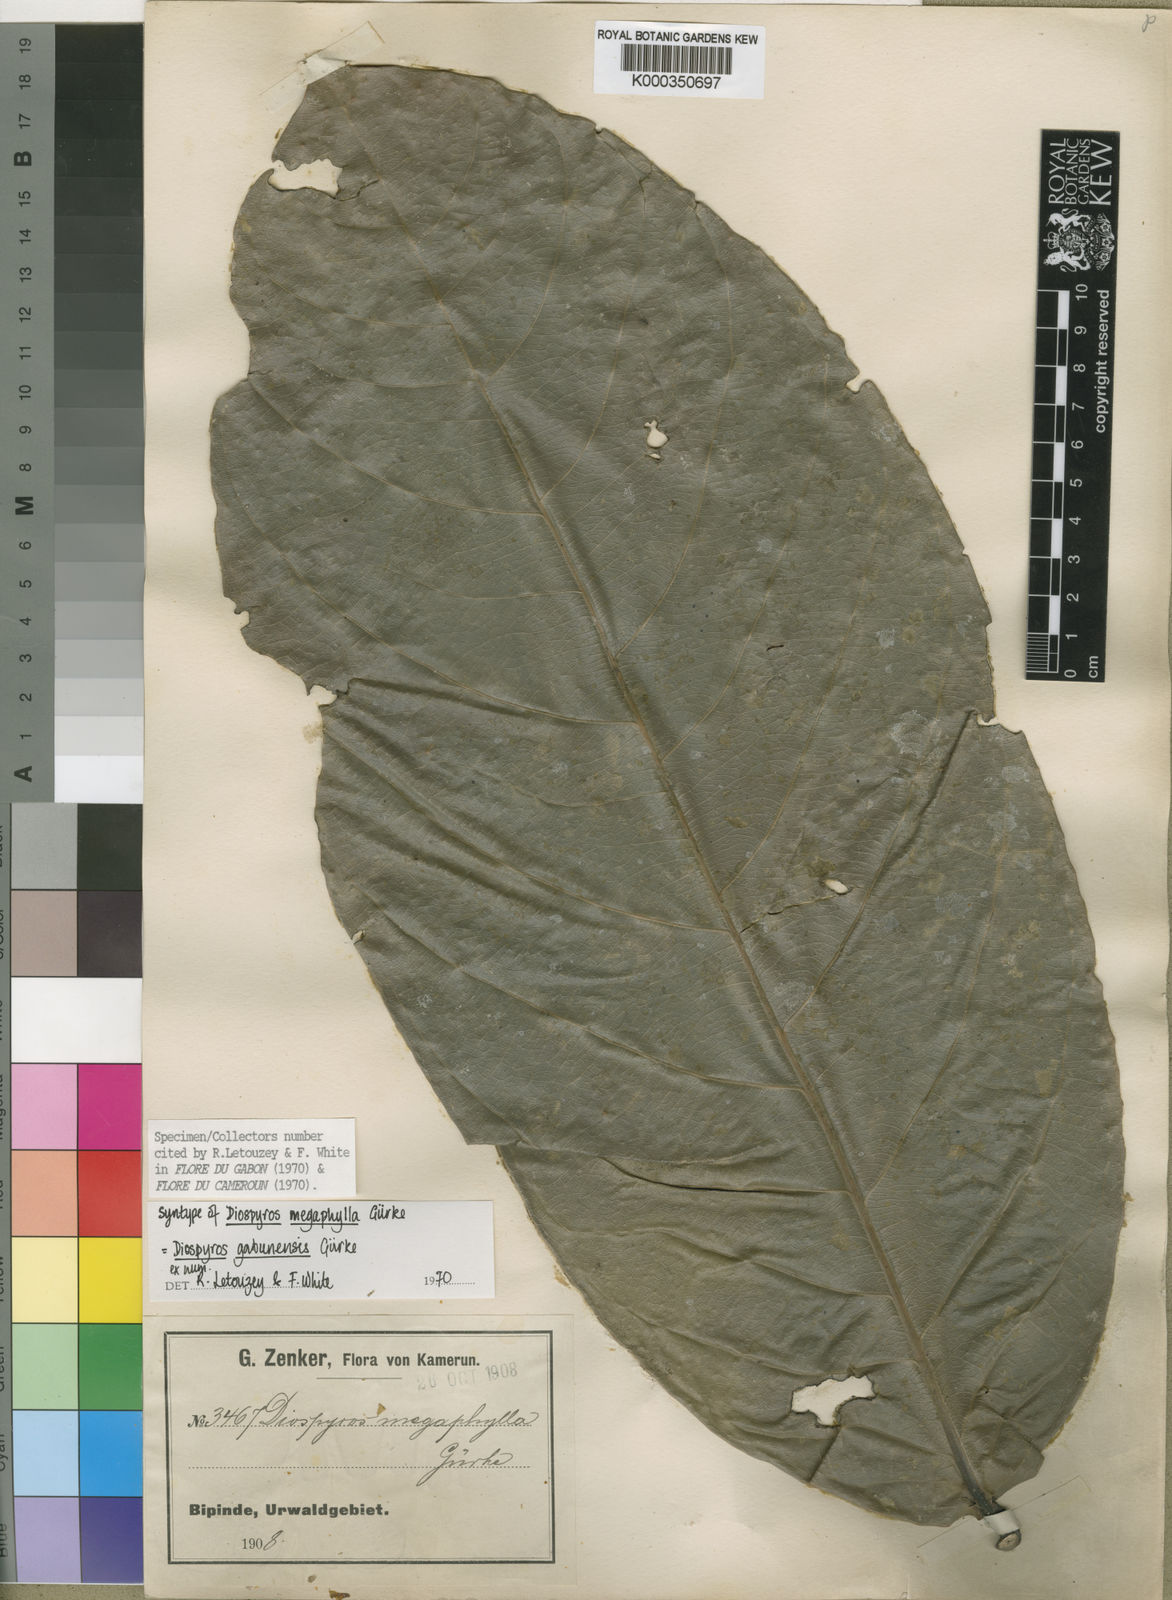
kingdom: Plantae
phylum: Tracheophyta
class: Magnoliopsida
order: Ericales
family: Ebenaceae
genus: Diospyros
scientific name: Diospyros
